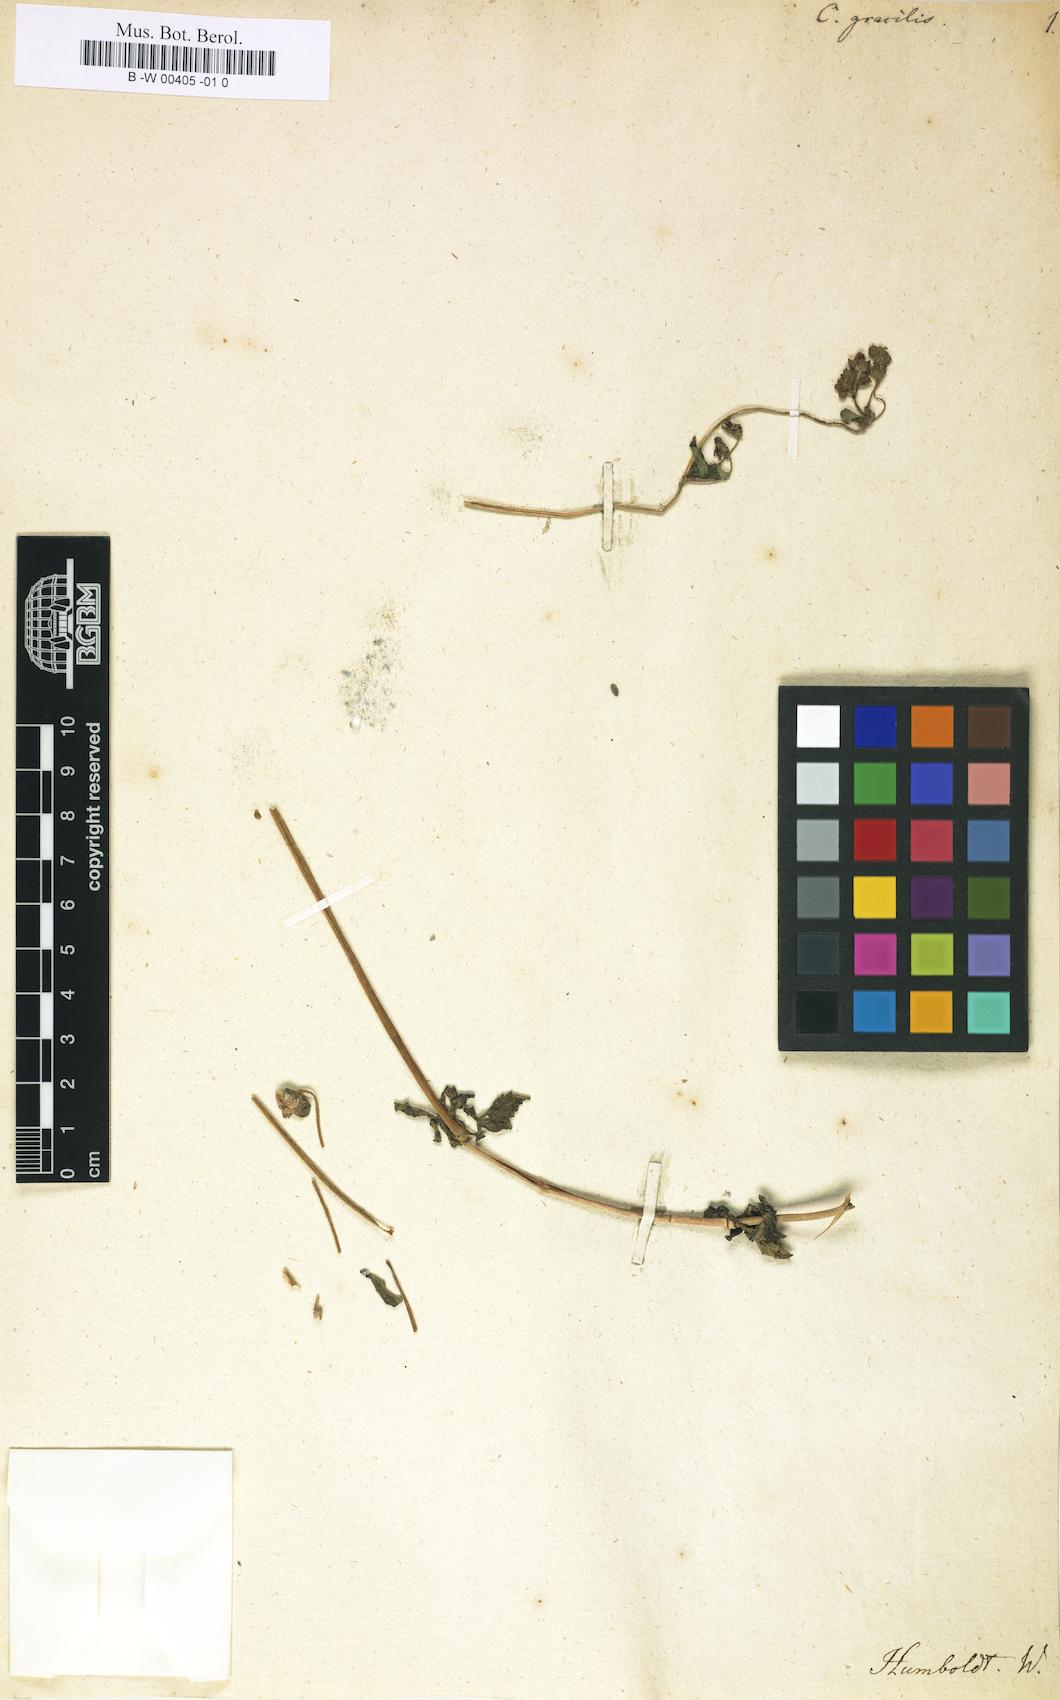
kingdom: Plantae
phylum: Tracheophyta
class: Magnoliopsida
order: Lamiales
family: Calceolariaceae
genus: Calceolaria
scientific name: Calceolaria tripartita
